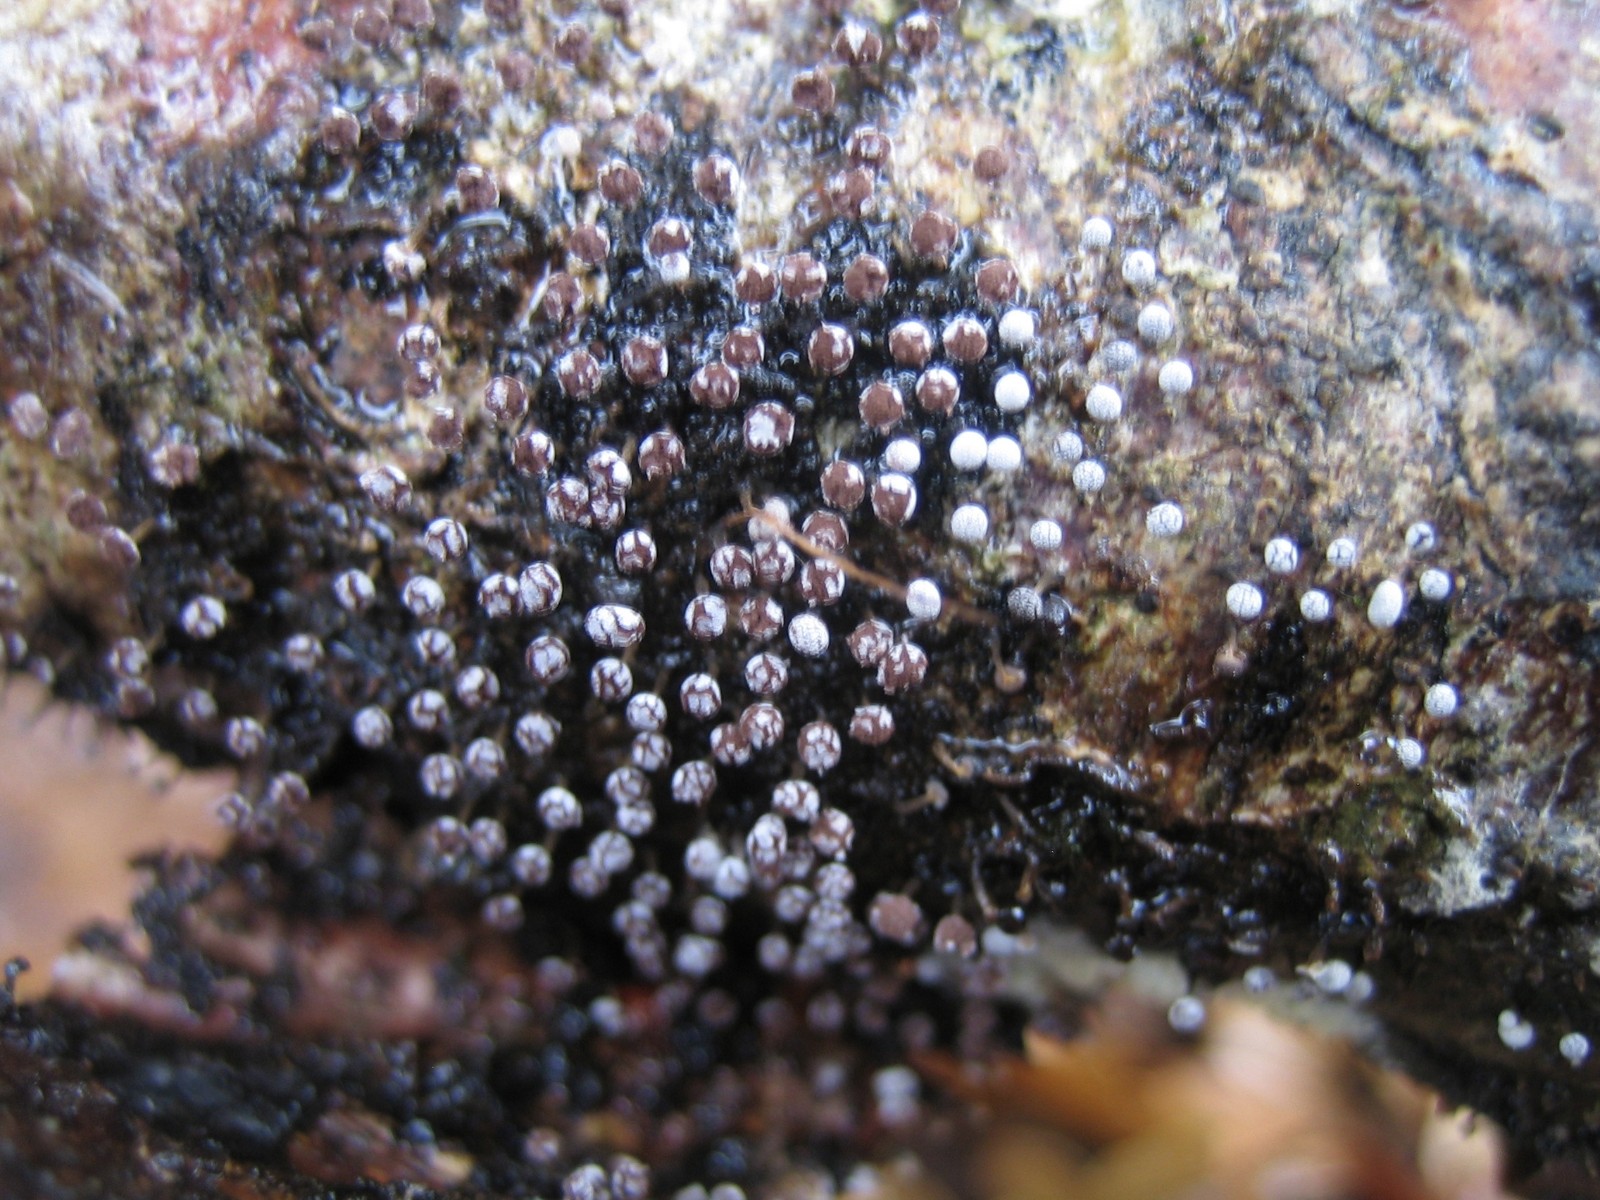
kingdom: Protozoa
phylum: Mycetozoa
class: Myxomycetes
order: Physarales
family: Physaraceae
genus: Physarum
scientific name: Physarum
